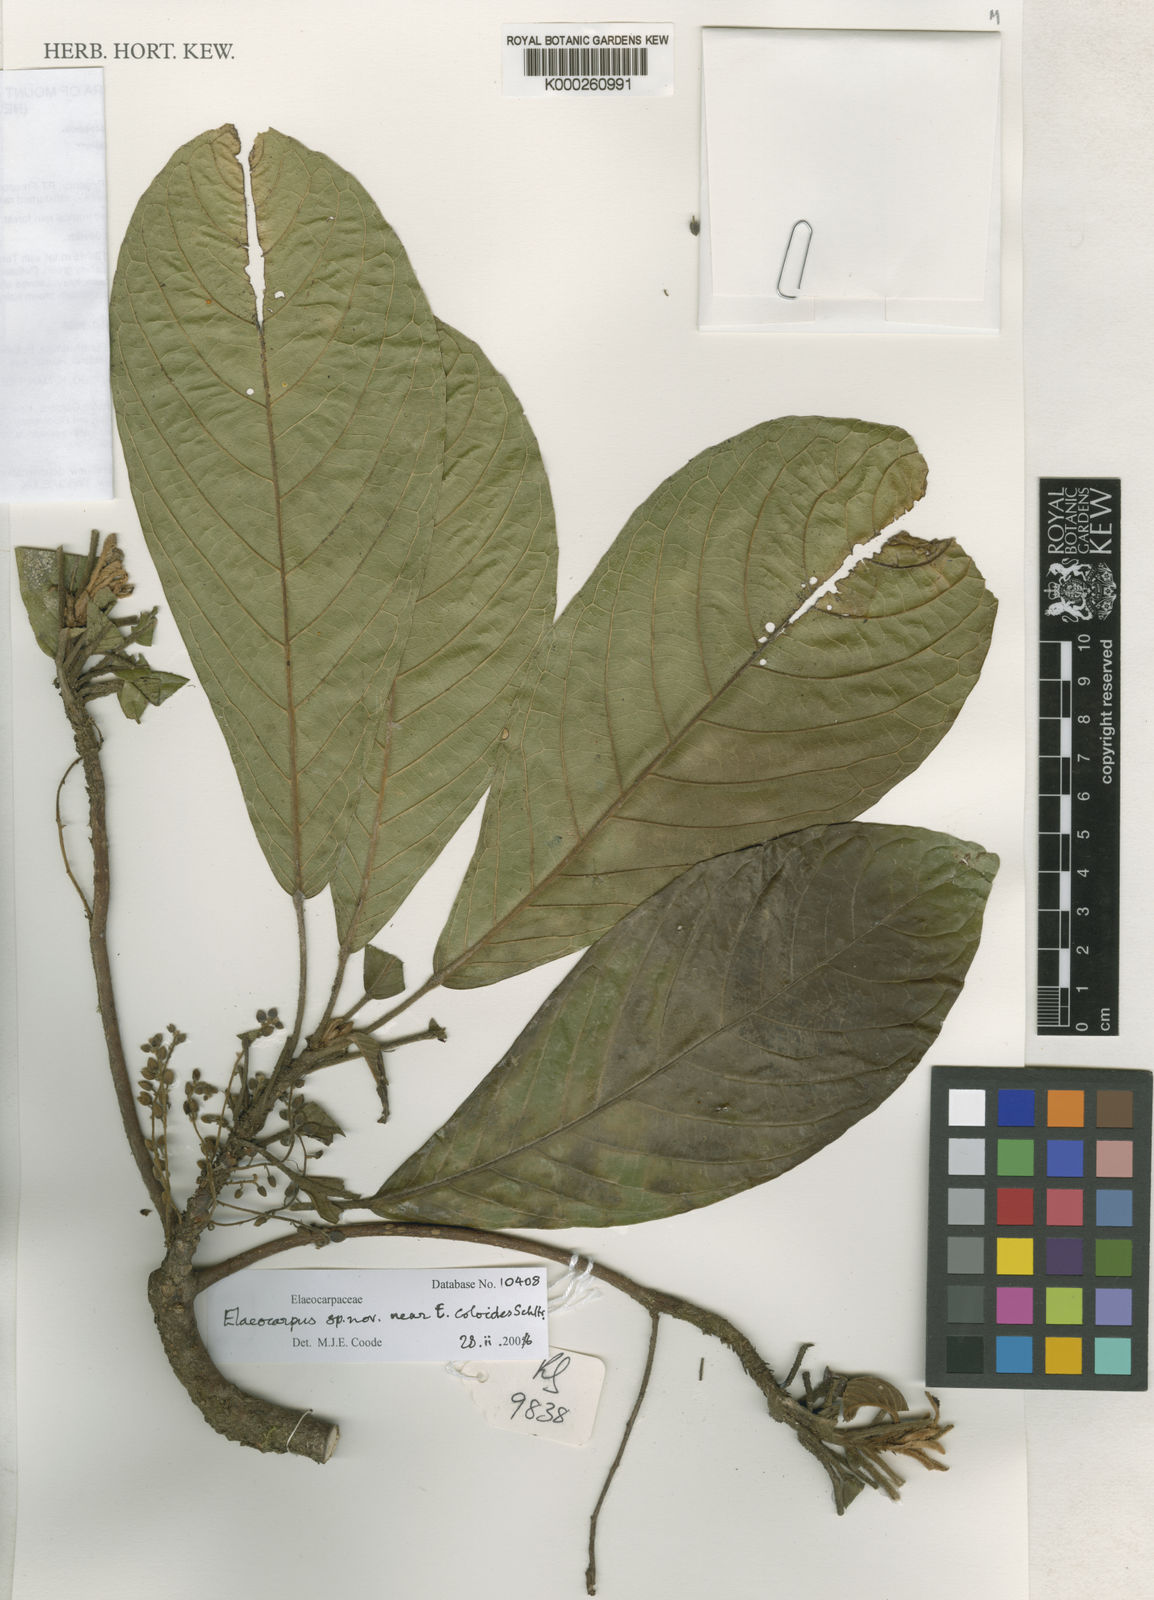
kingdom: Plantae
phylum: Tracheophyta
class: Magnoliopsida
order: Oxalidales
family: Elaeocarpaceae
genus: Elaeocarpus
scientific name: Elaeocarpus johnsii
